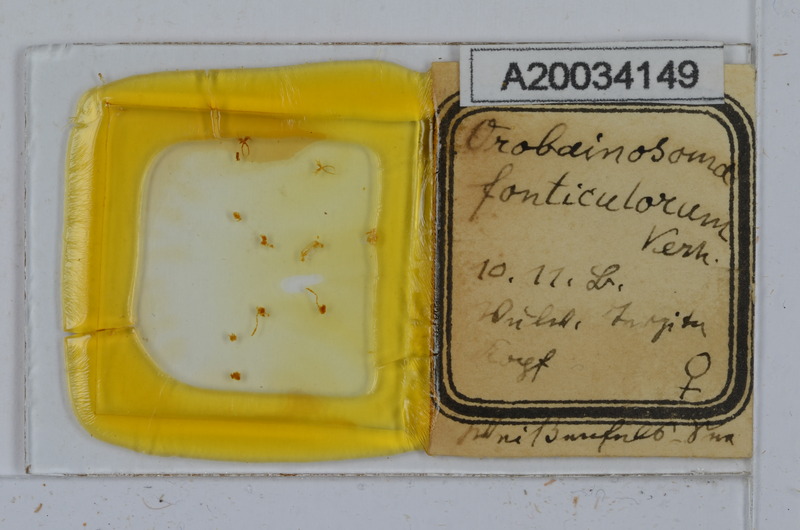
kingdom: Animalia
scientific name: Animalia
